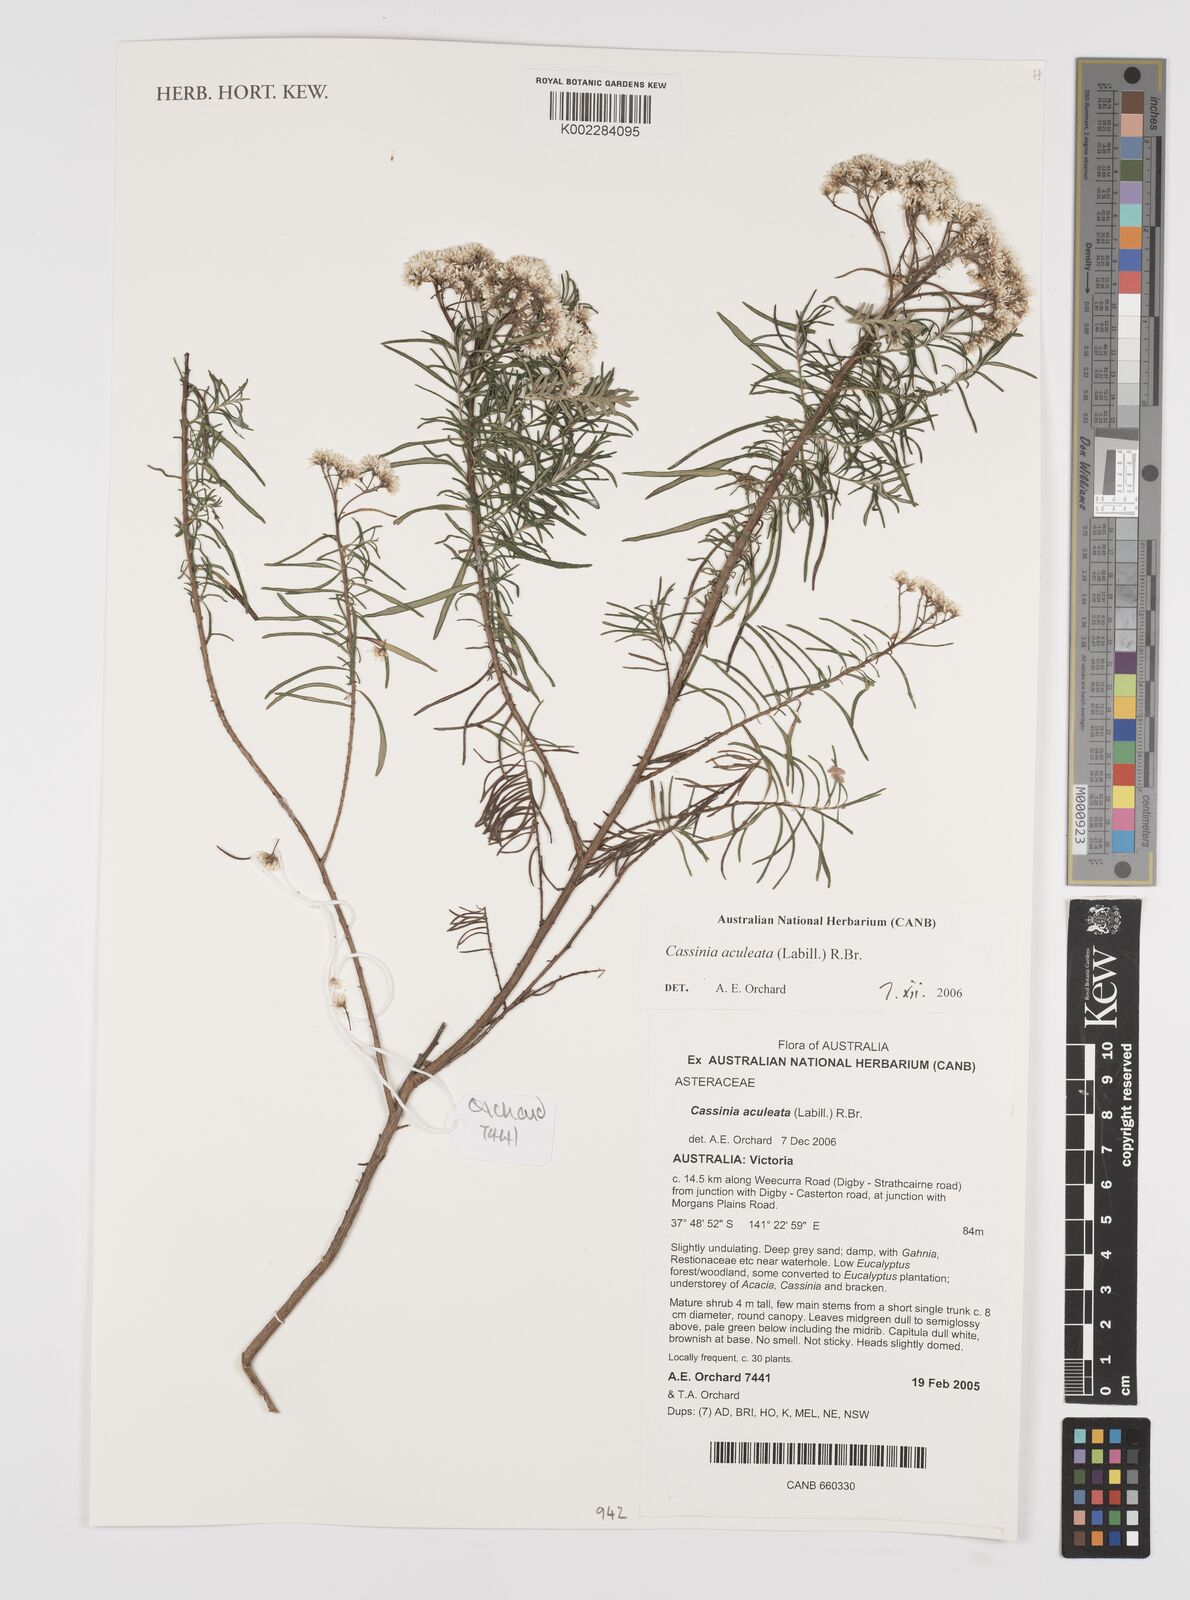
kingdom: Plantae
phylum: Tracheophyta
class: Magnoliopsida
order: Asterales
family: Asteraceae
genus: Cassinia
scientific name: Cassinia aculeata
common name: Australian tauhinu
